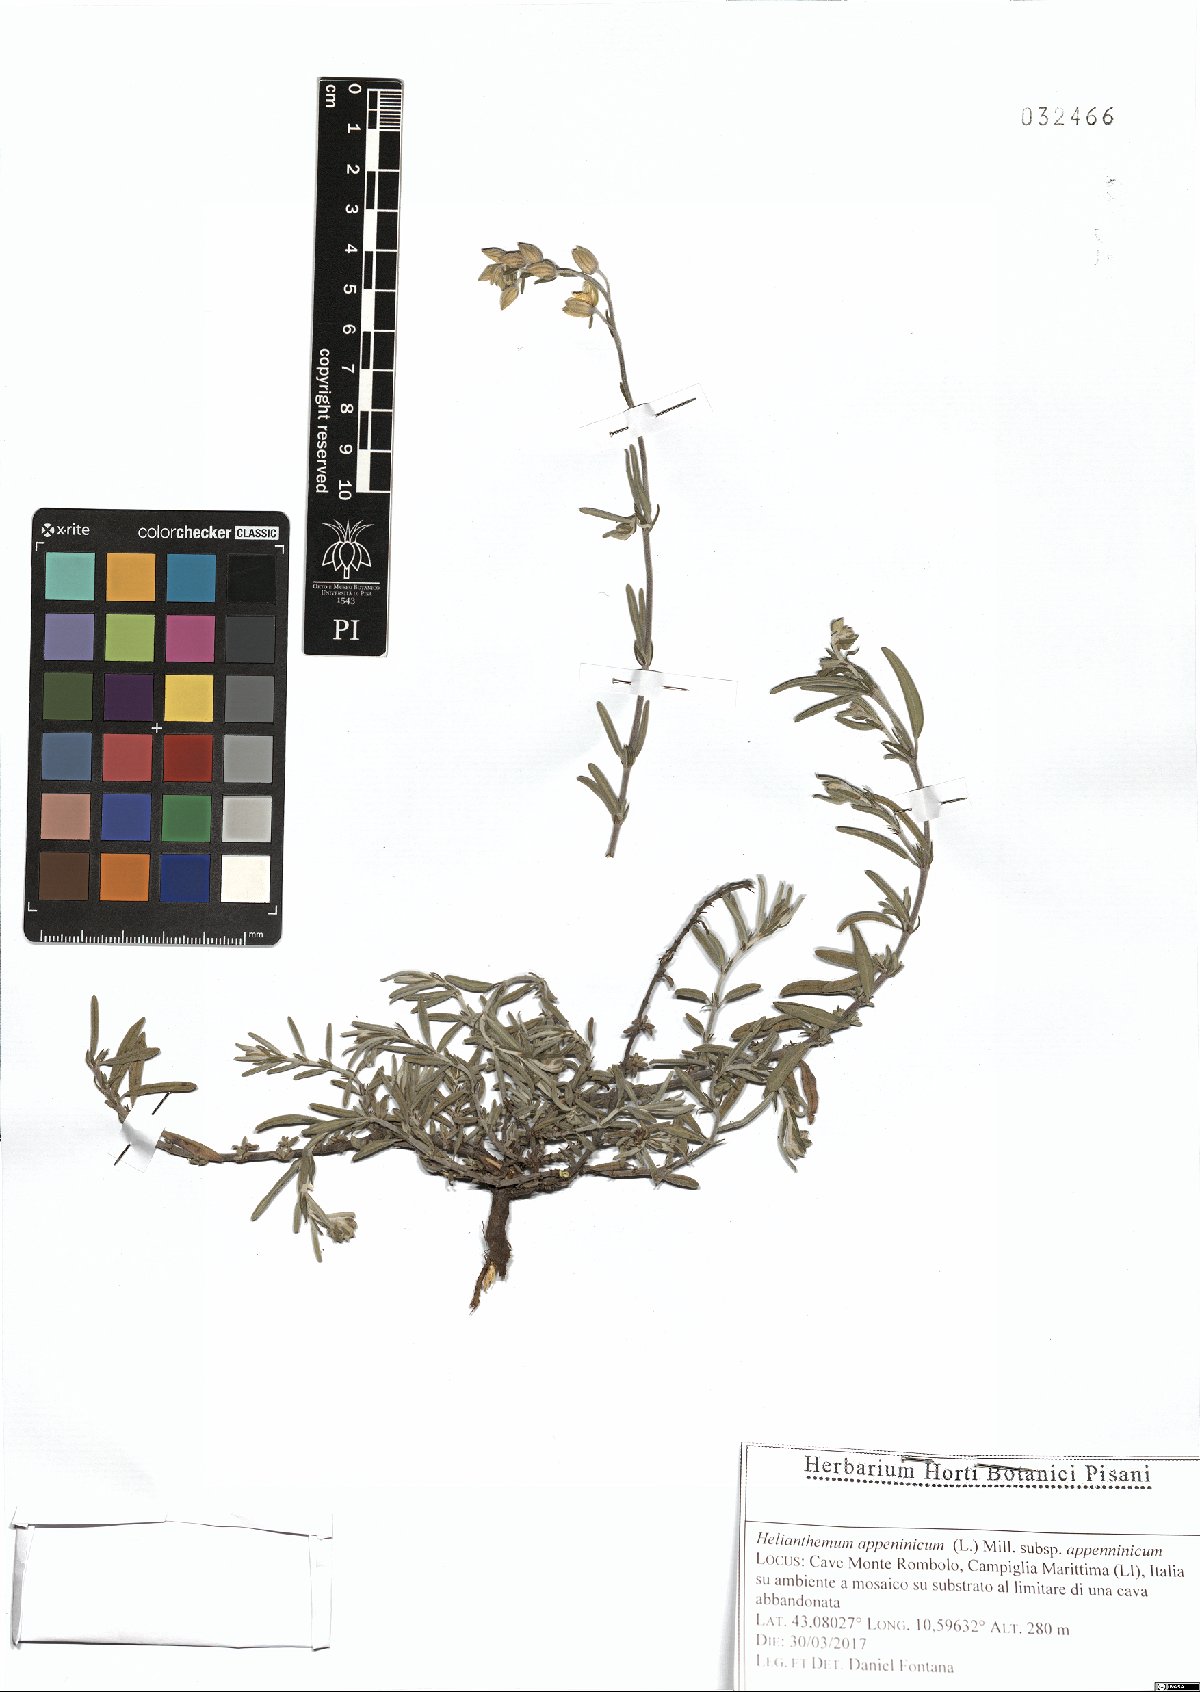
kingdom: Plantae
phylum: Tracheophyta
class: Magnoliopsida
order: Malvales
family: Cistaceae
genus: Helianthemum
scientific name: Helianthemum apenninum
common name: White rock-rose
